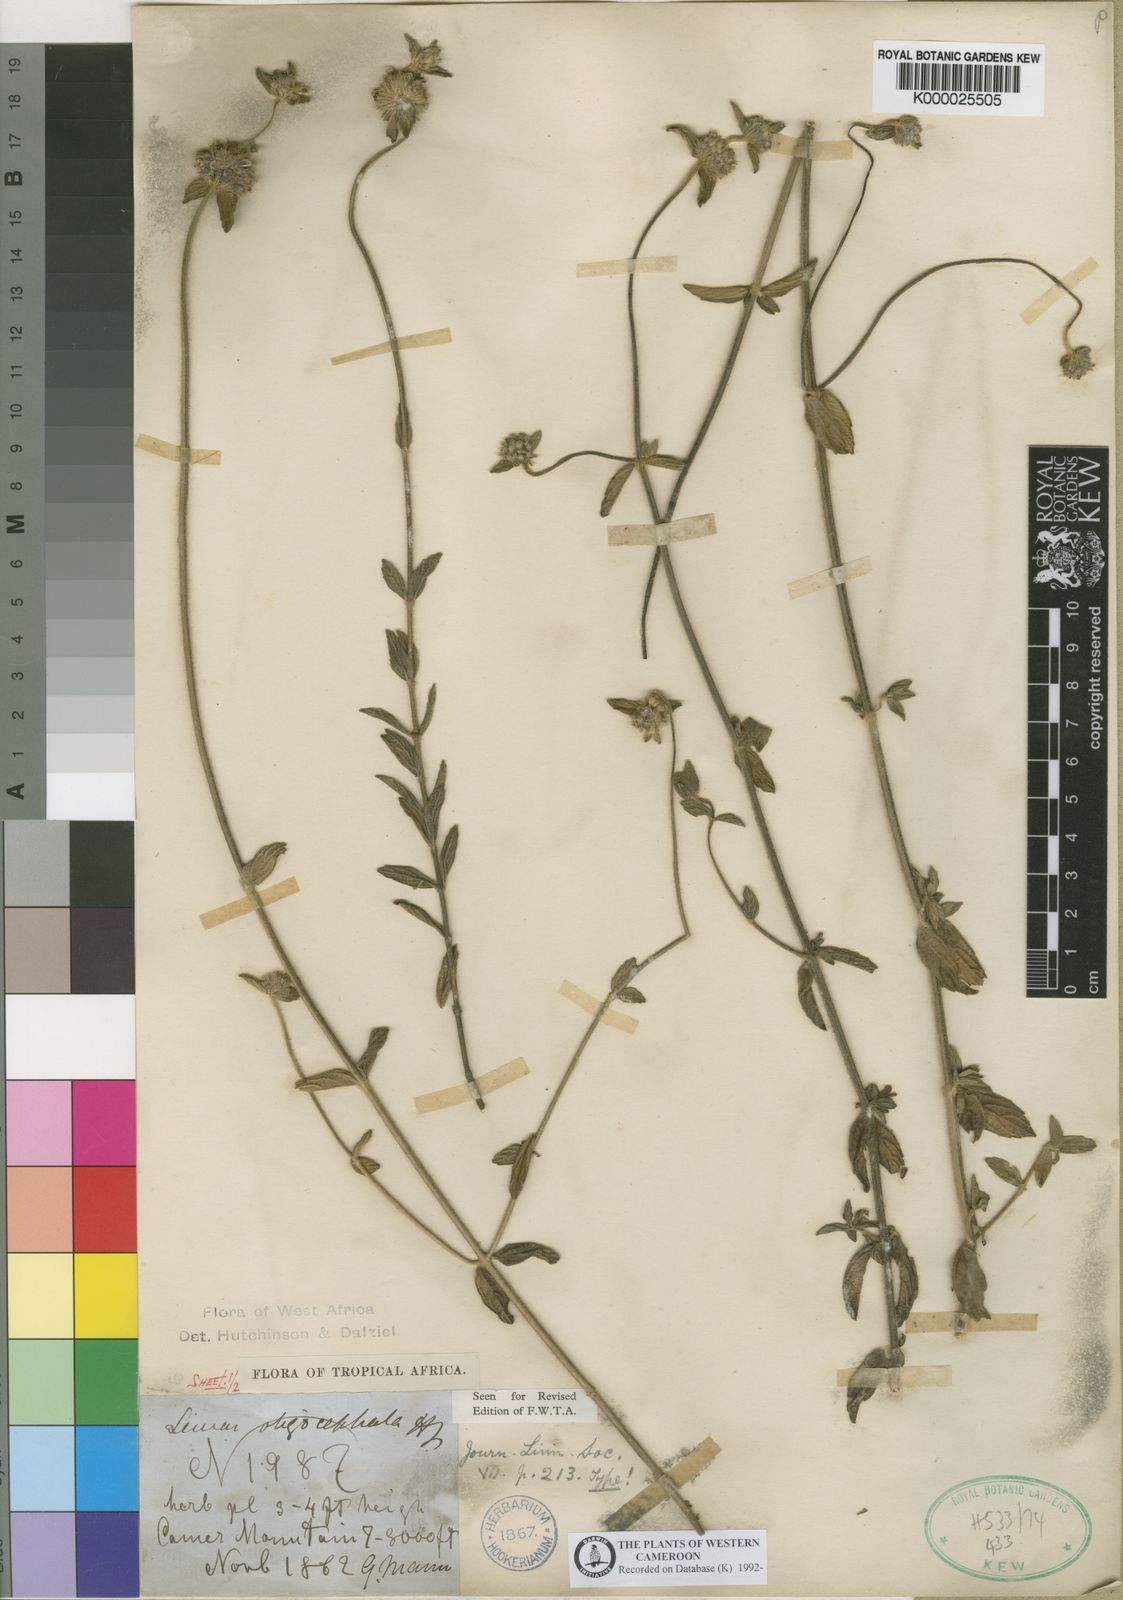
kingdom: Plantae
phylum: Tracheophyta
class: Magnoliopsida
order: Lamiales
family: Lamiaceae
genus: Leucas
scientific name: Leucas oligocephala
